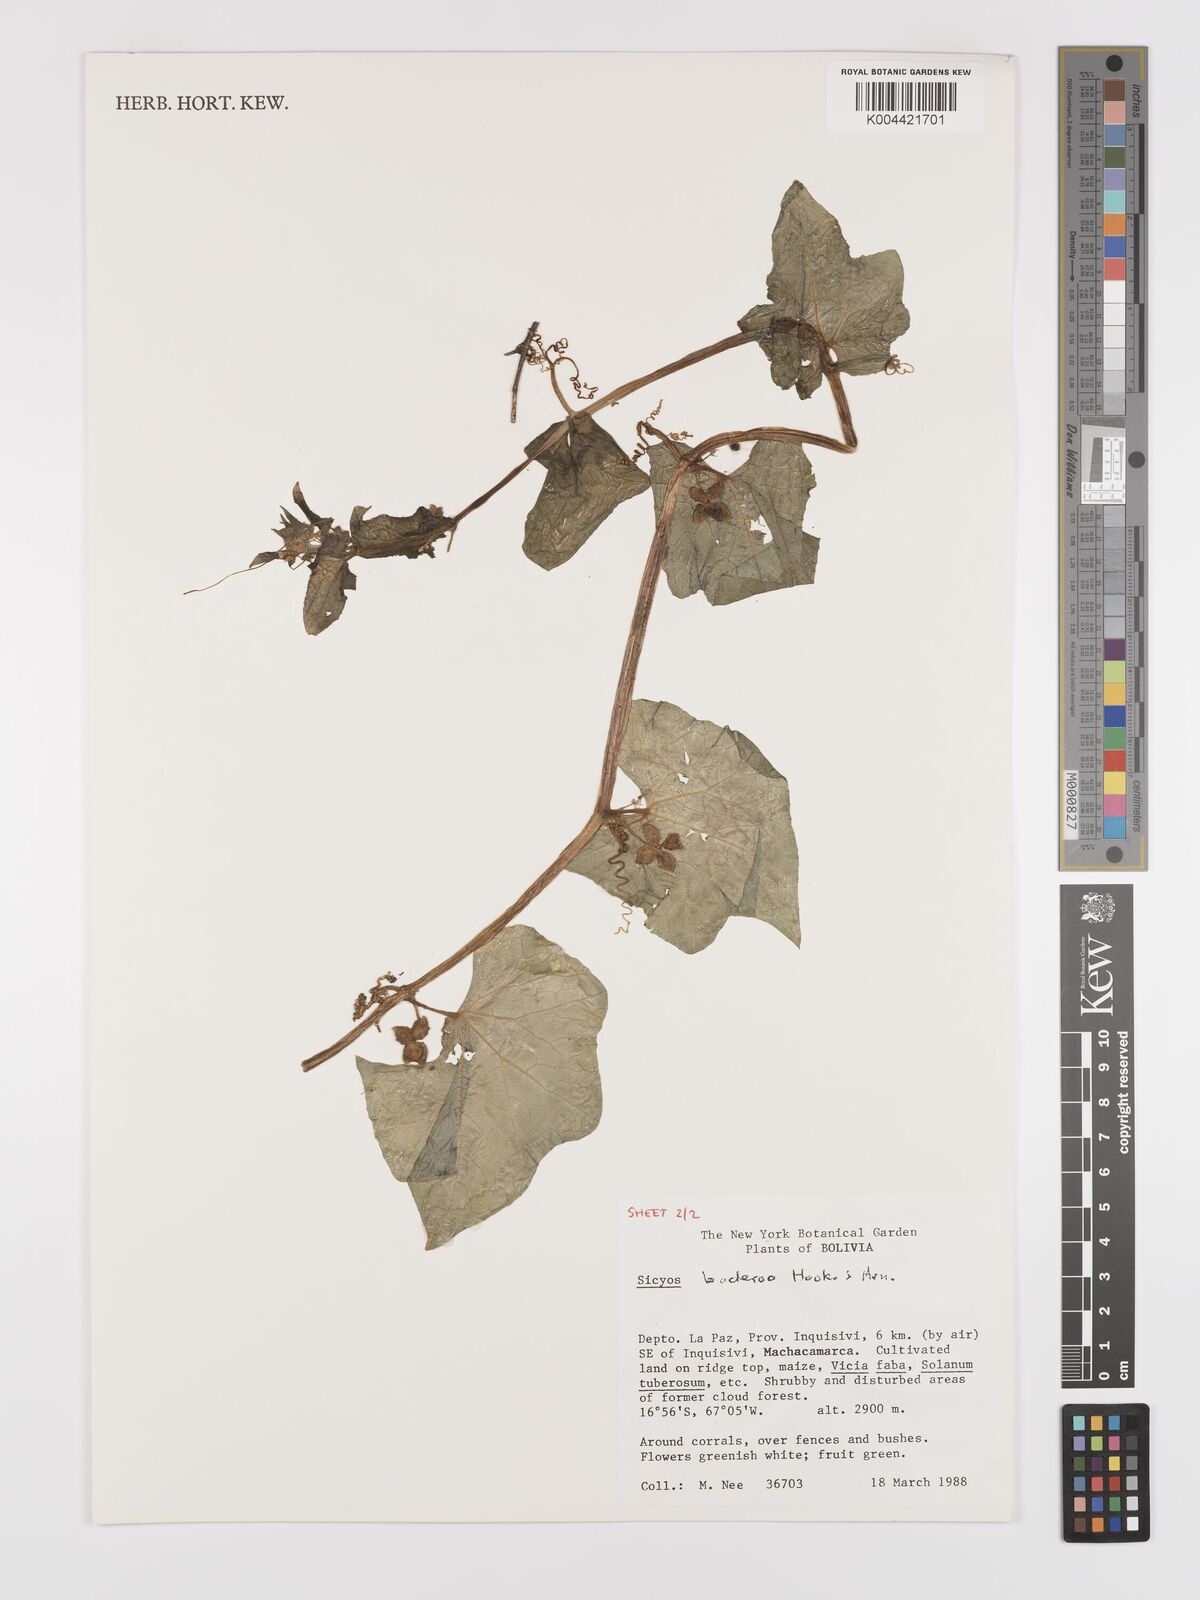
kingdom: Plantae
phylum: Tracheophyta
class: Magnoliopsida
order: Cucurbitales
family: Cucurbitaceae
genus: Sicyos
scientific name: Sicyos baderoa
